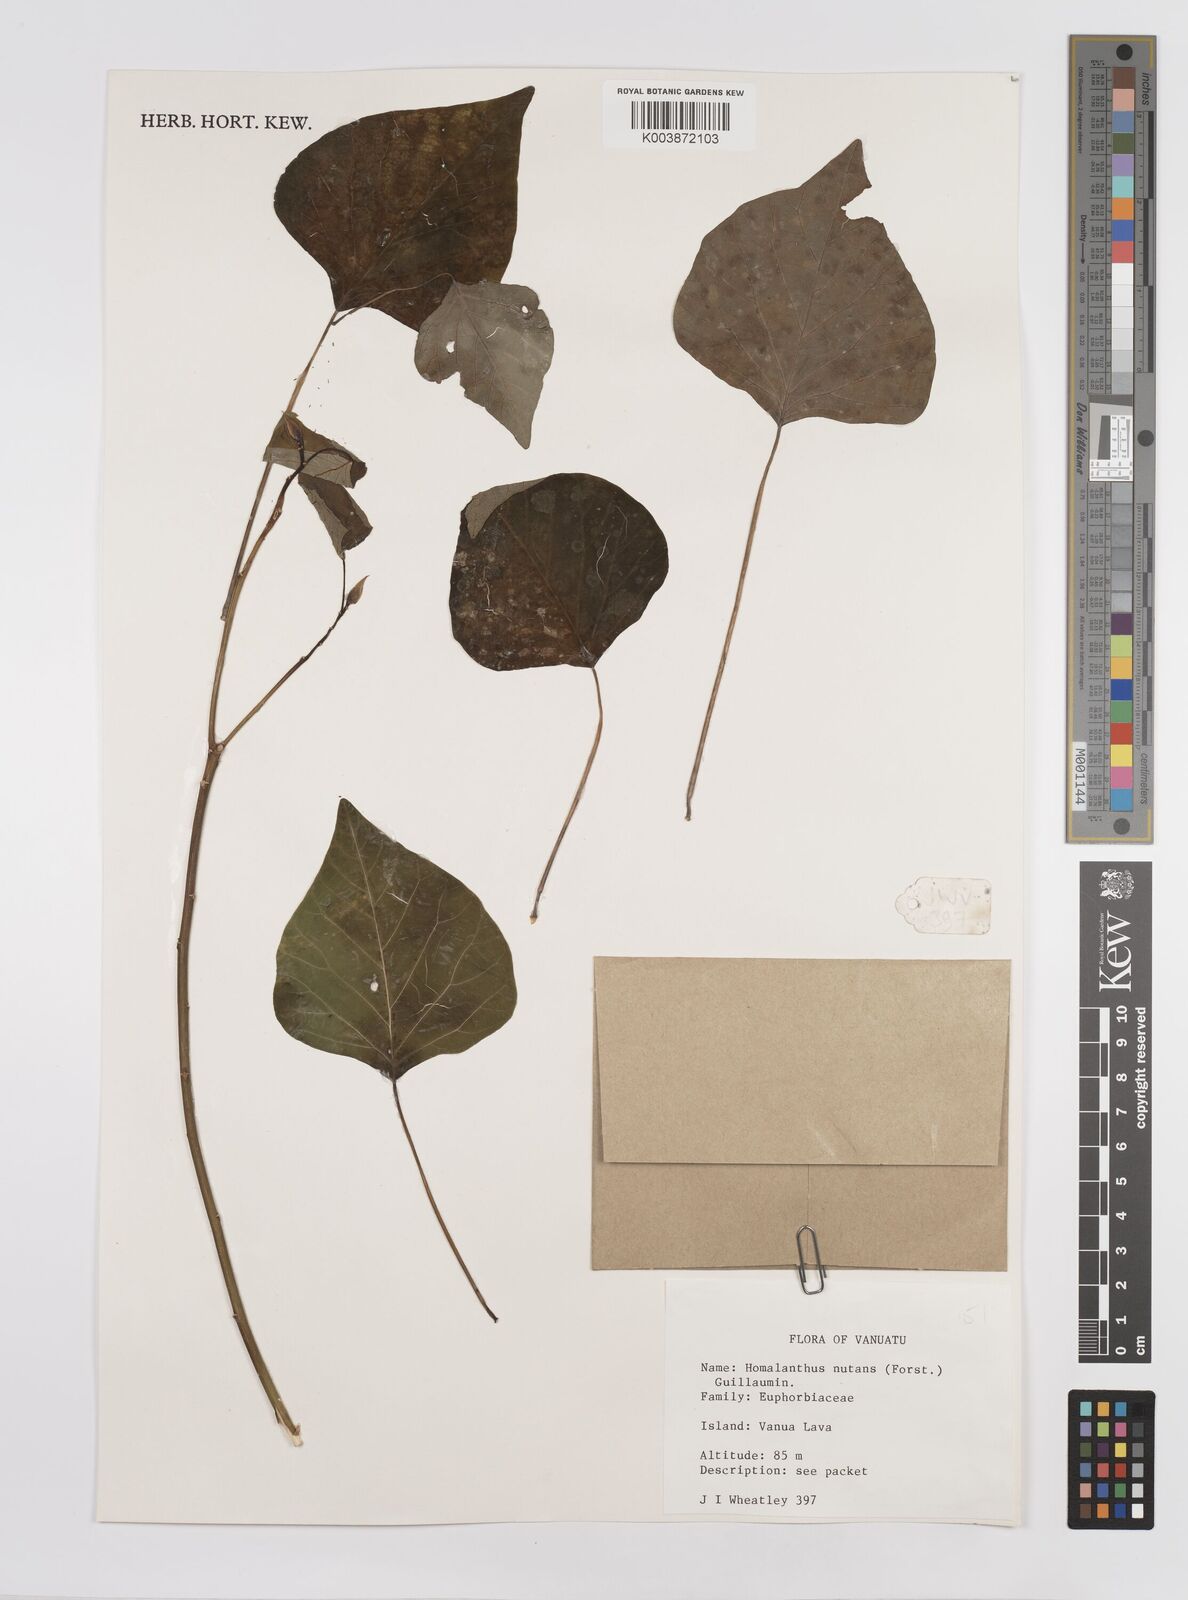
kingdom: Plantae
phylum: Tracheophyta
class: Magnoliopsida
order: Malpighiales
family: Euphorbiaceae
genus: Homalanthus
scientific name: Homalanthus nutans
